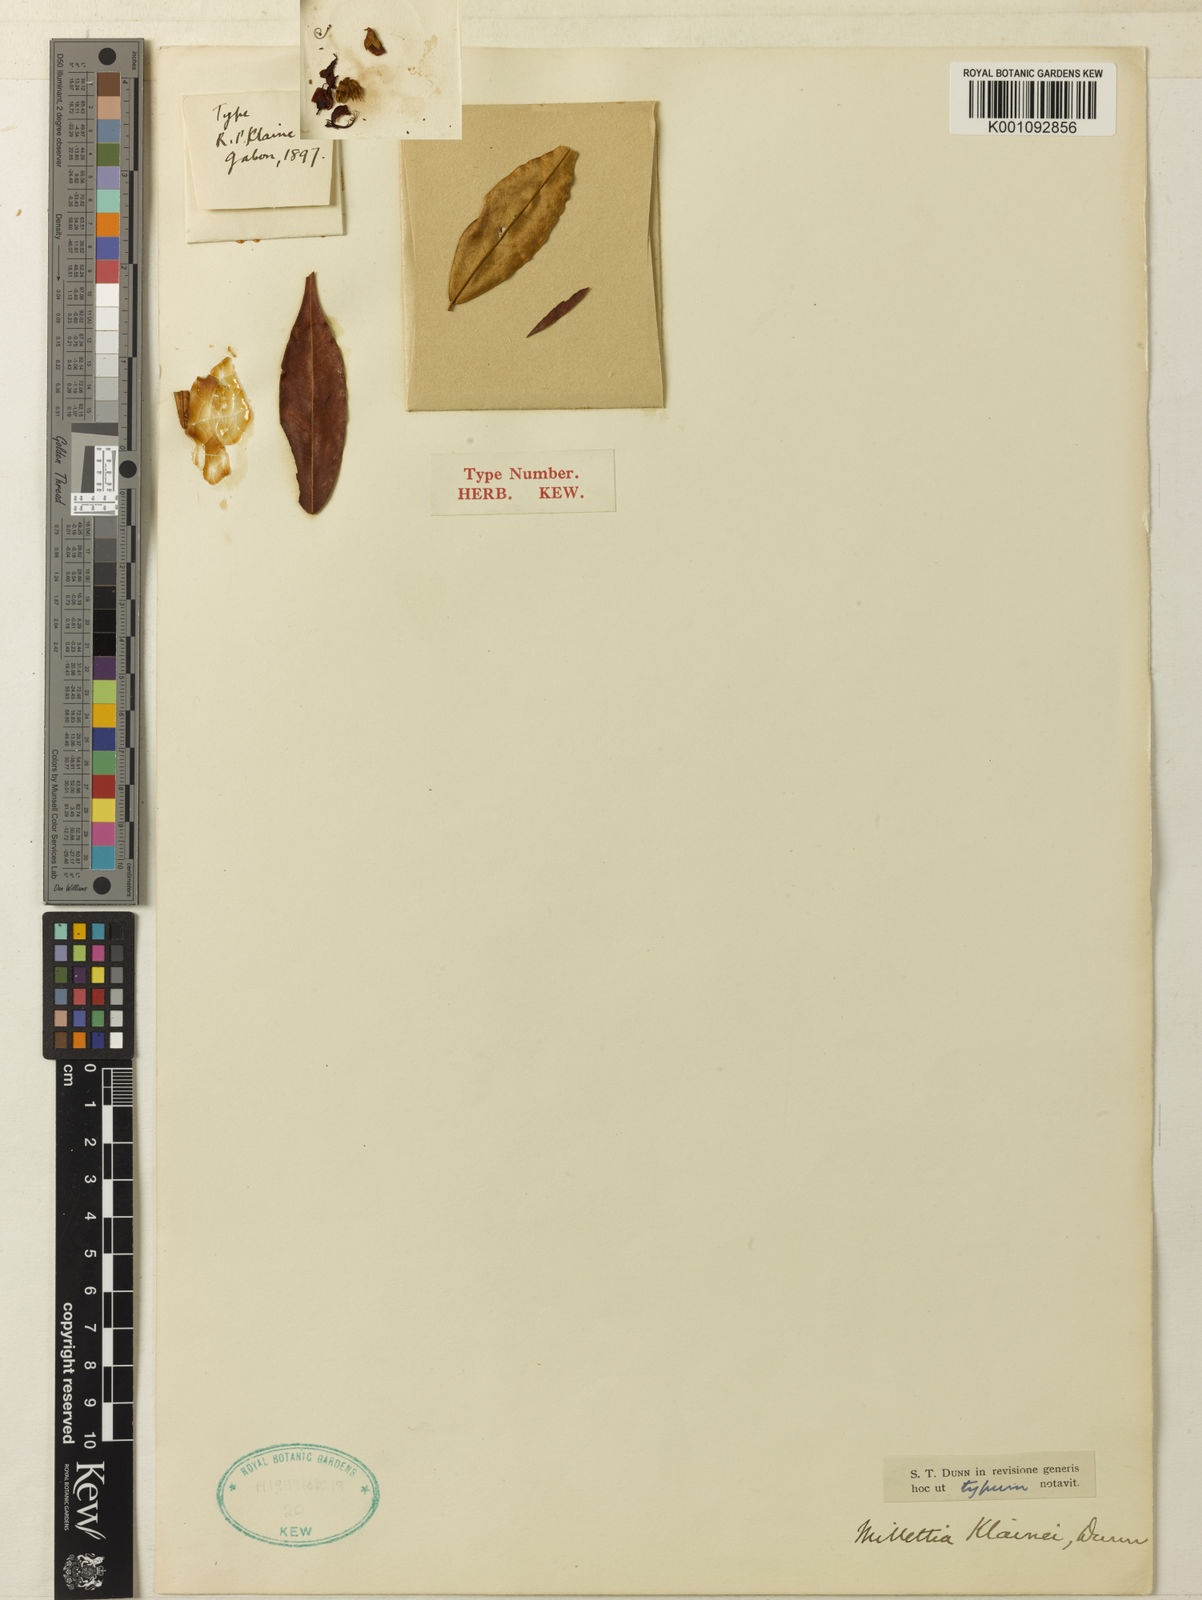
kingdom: Plantae
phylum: Tracheophyta
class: Magnoliopsida
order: Fabales
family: Fabaceae
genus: Millettia
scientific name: Millettia klainei
